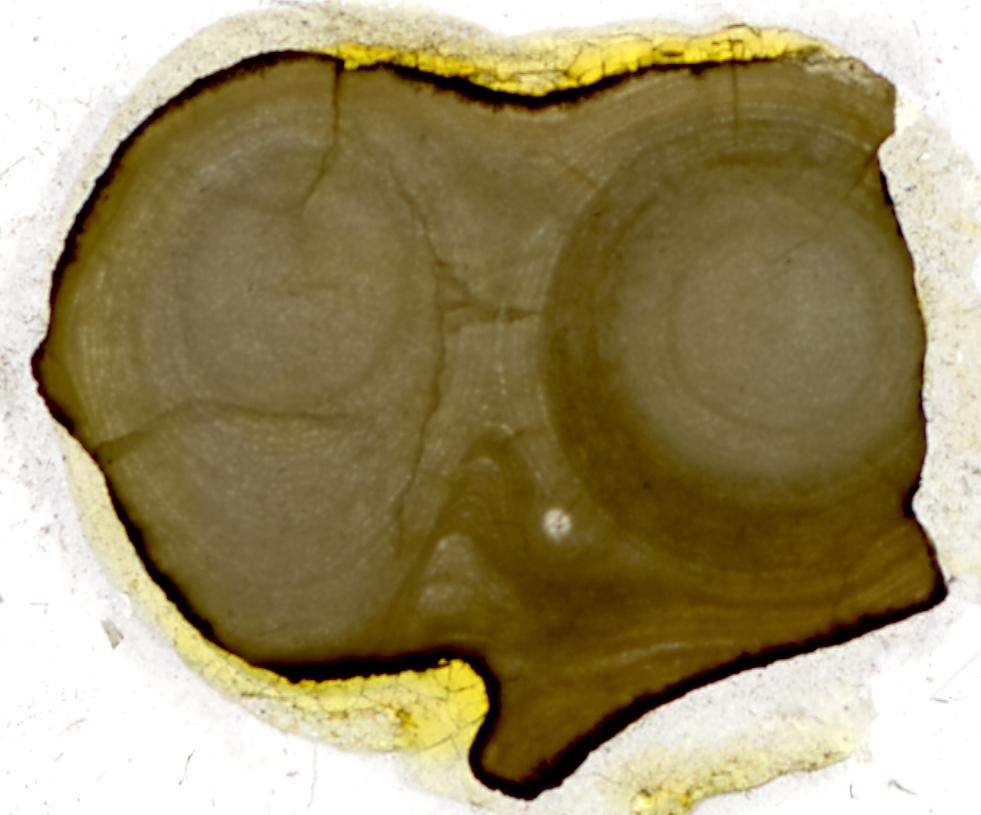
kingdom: Animalia
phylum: Porifera
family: Stromatoporidae
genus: Stromatopora
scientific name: Stromatopora
